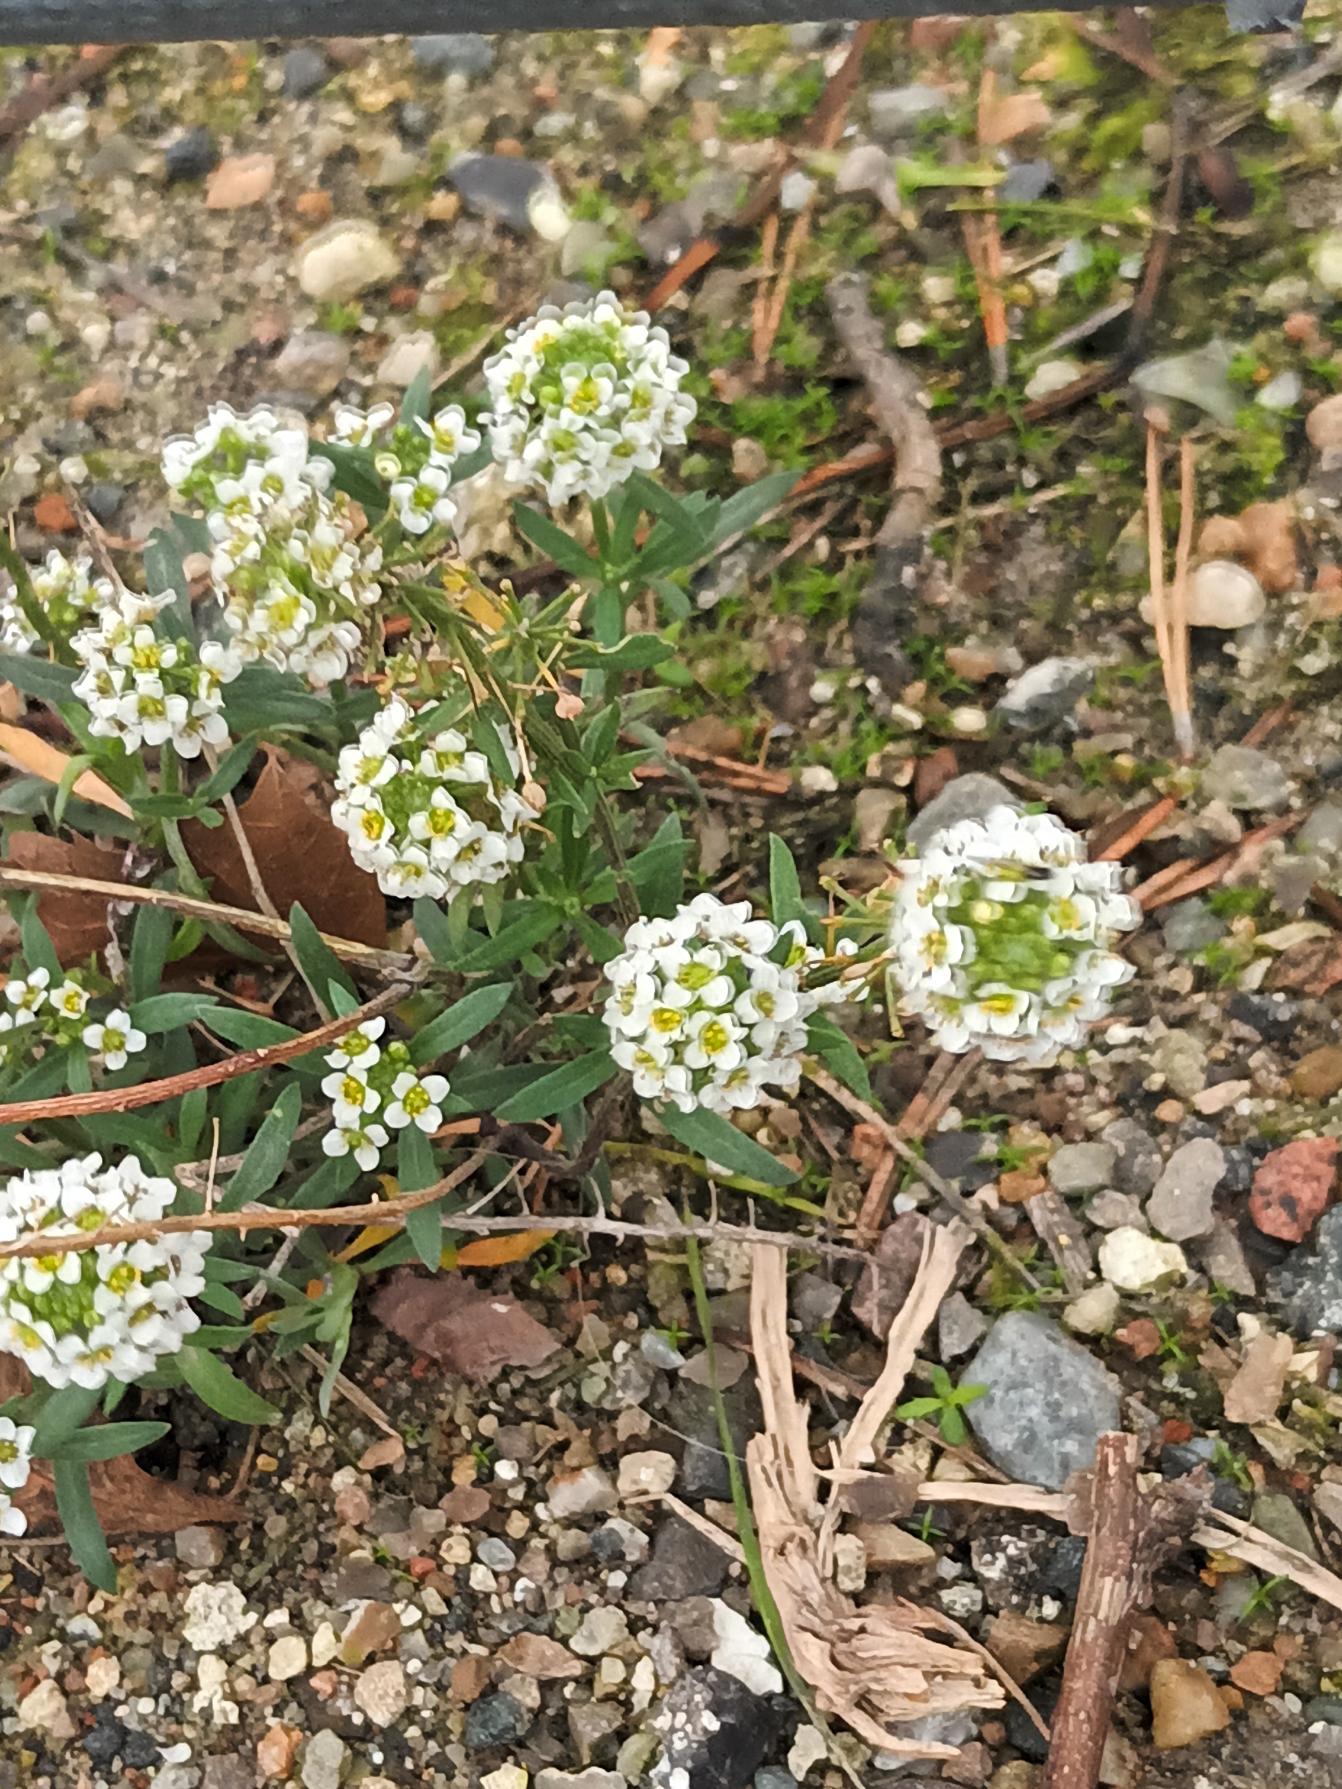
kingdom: Plantae
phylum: Tracheophyta
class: Magnoliopsida
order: Brassicales
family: Brassicaceae
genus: Lobularia
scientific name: Lobularia maritima
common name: Biblomme
